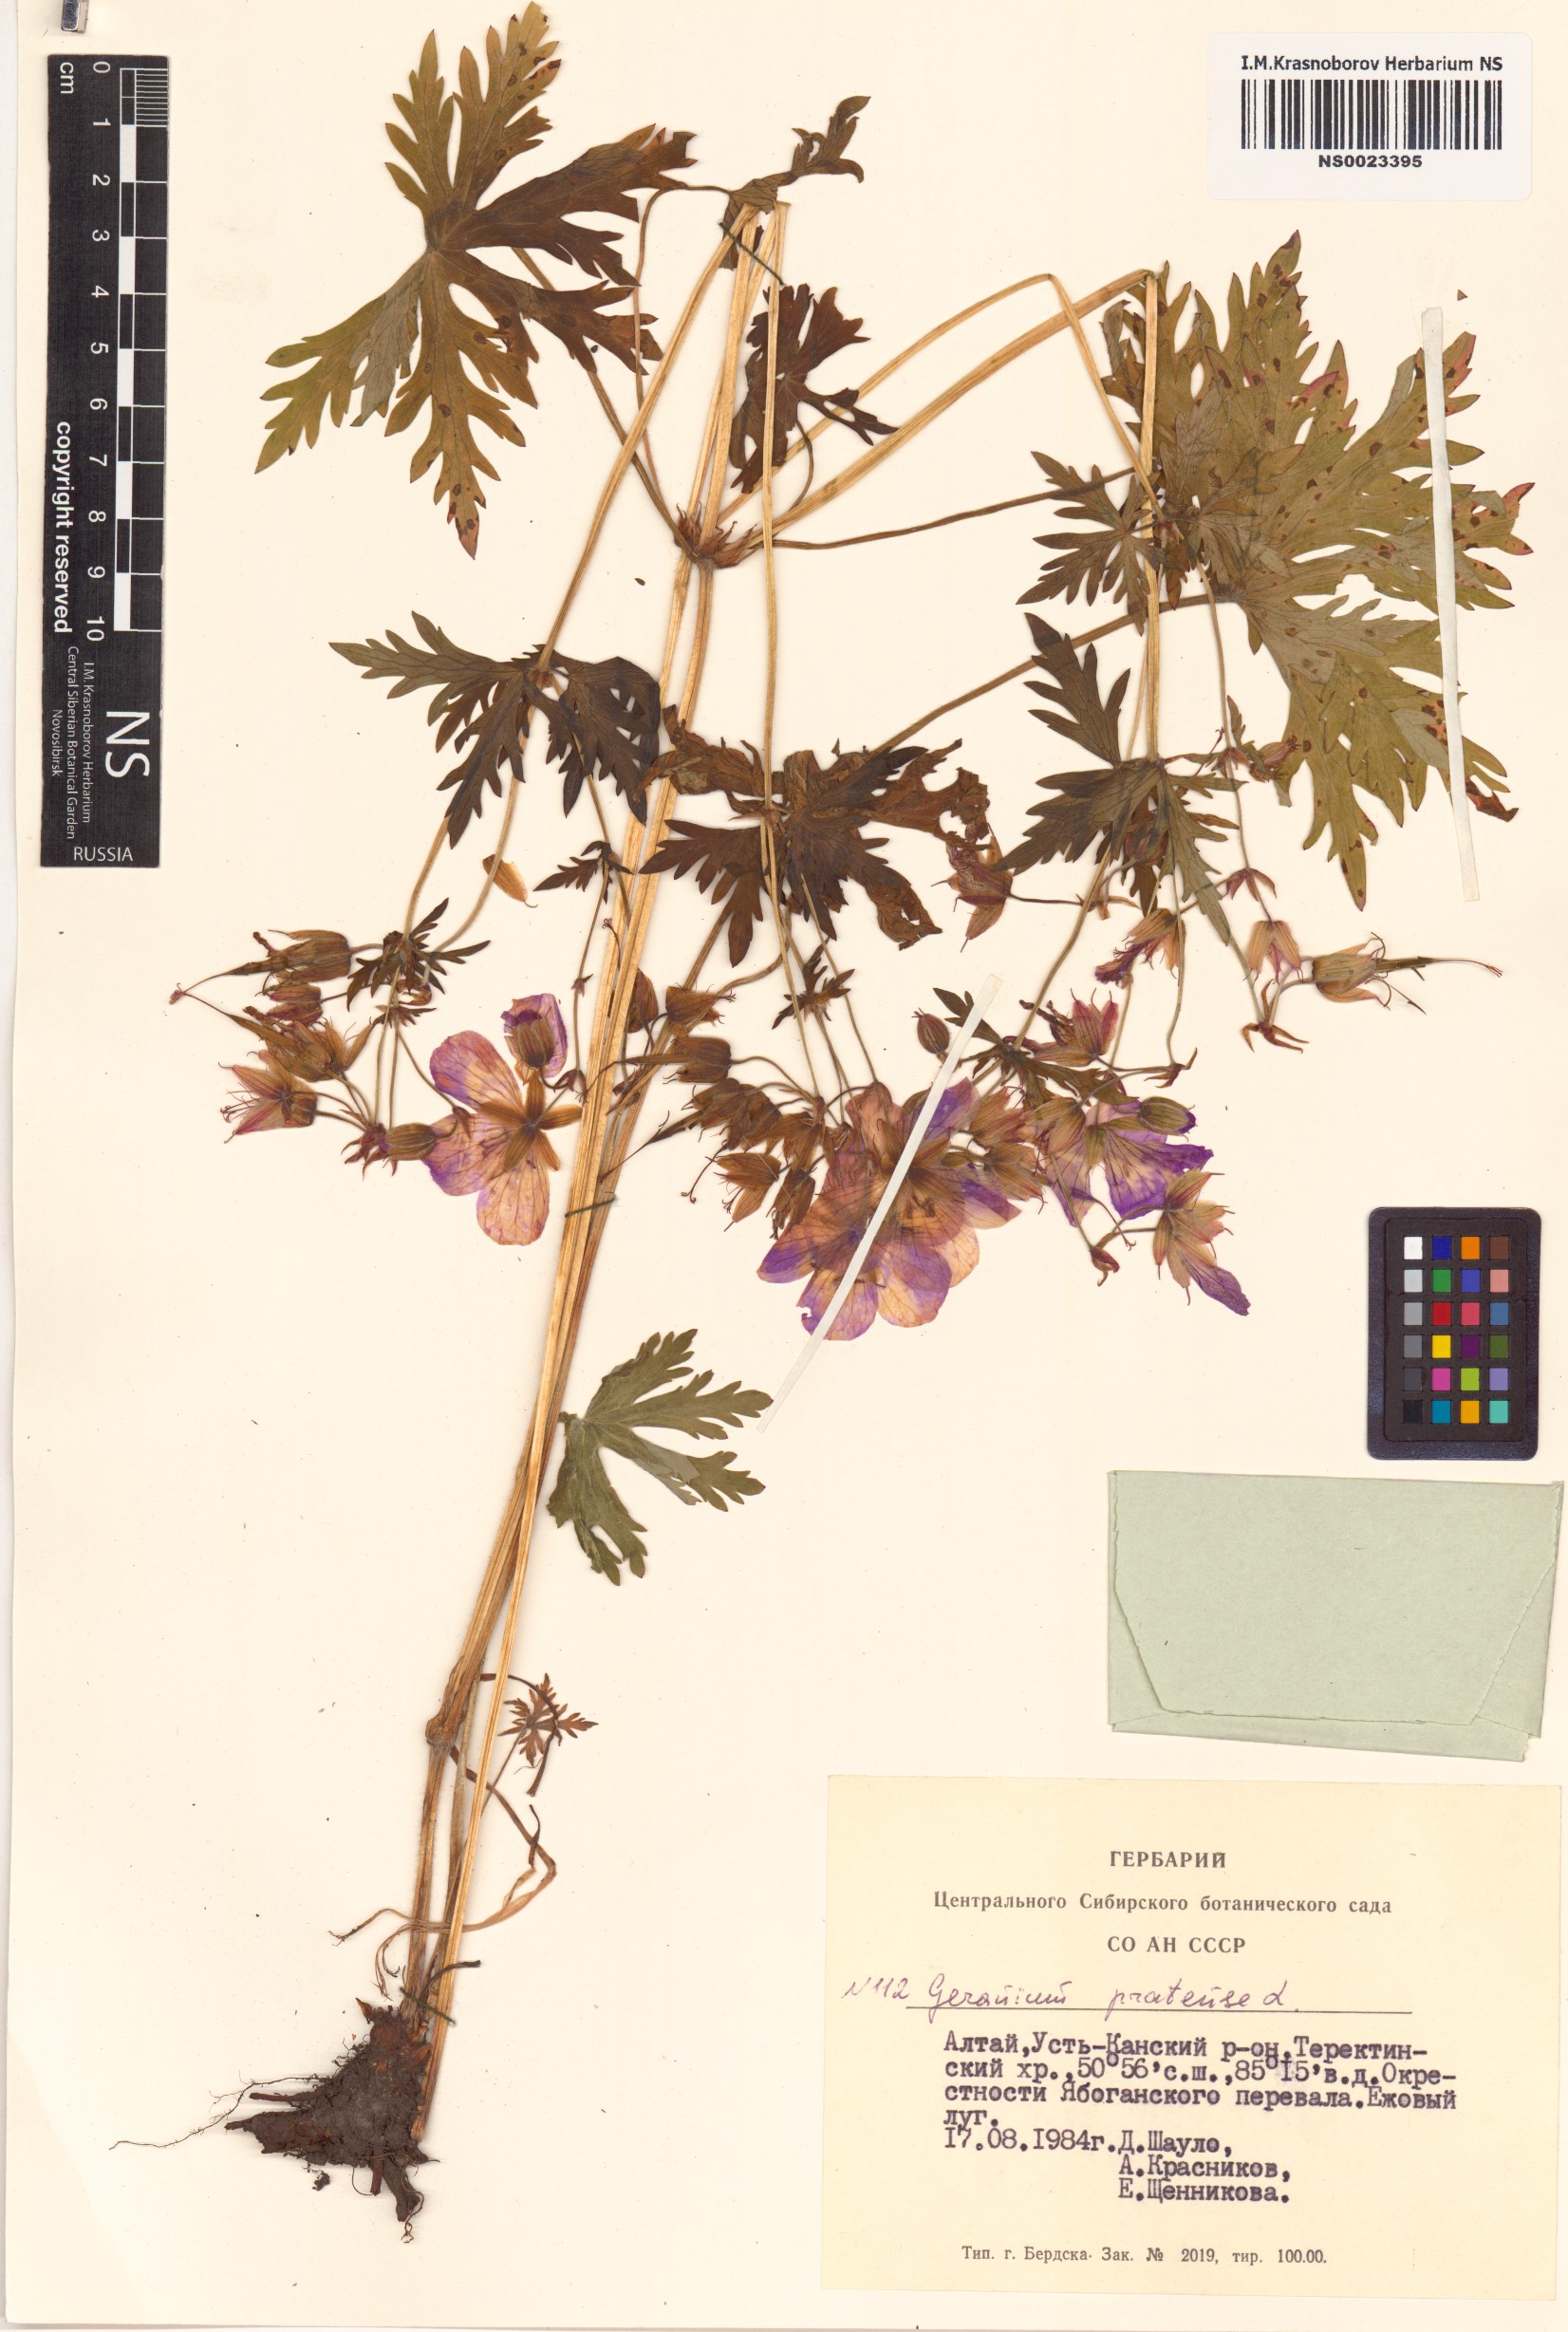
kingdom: Plantae
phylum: Tracheophyta
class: Magnoliopsida
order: Geraniales
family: Geraniaceae
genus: Geranium
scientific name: Geranium pratense
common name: Meadow crane's-bill
